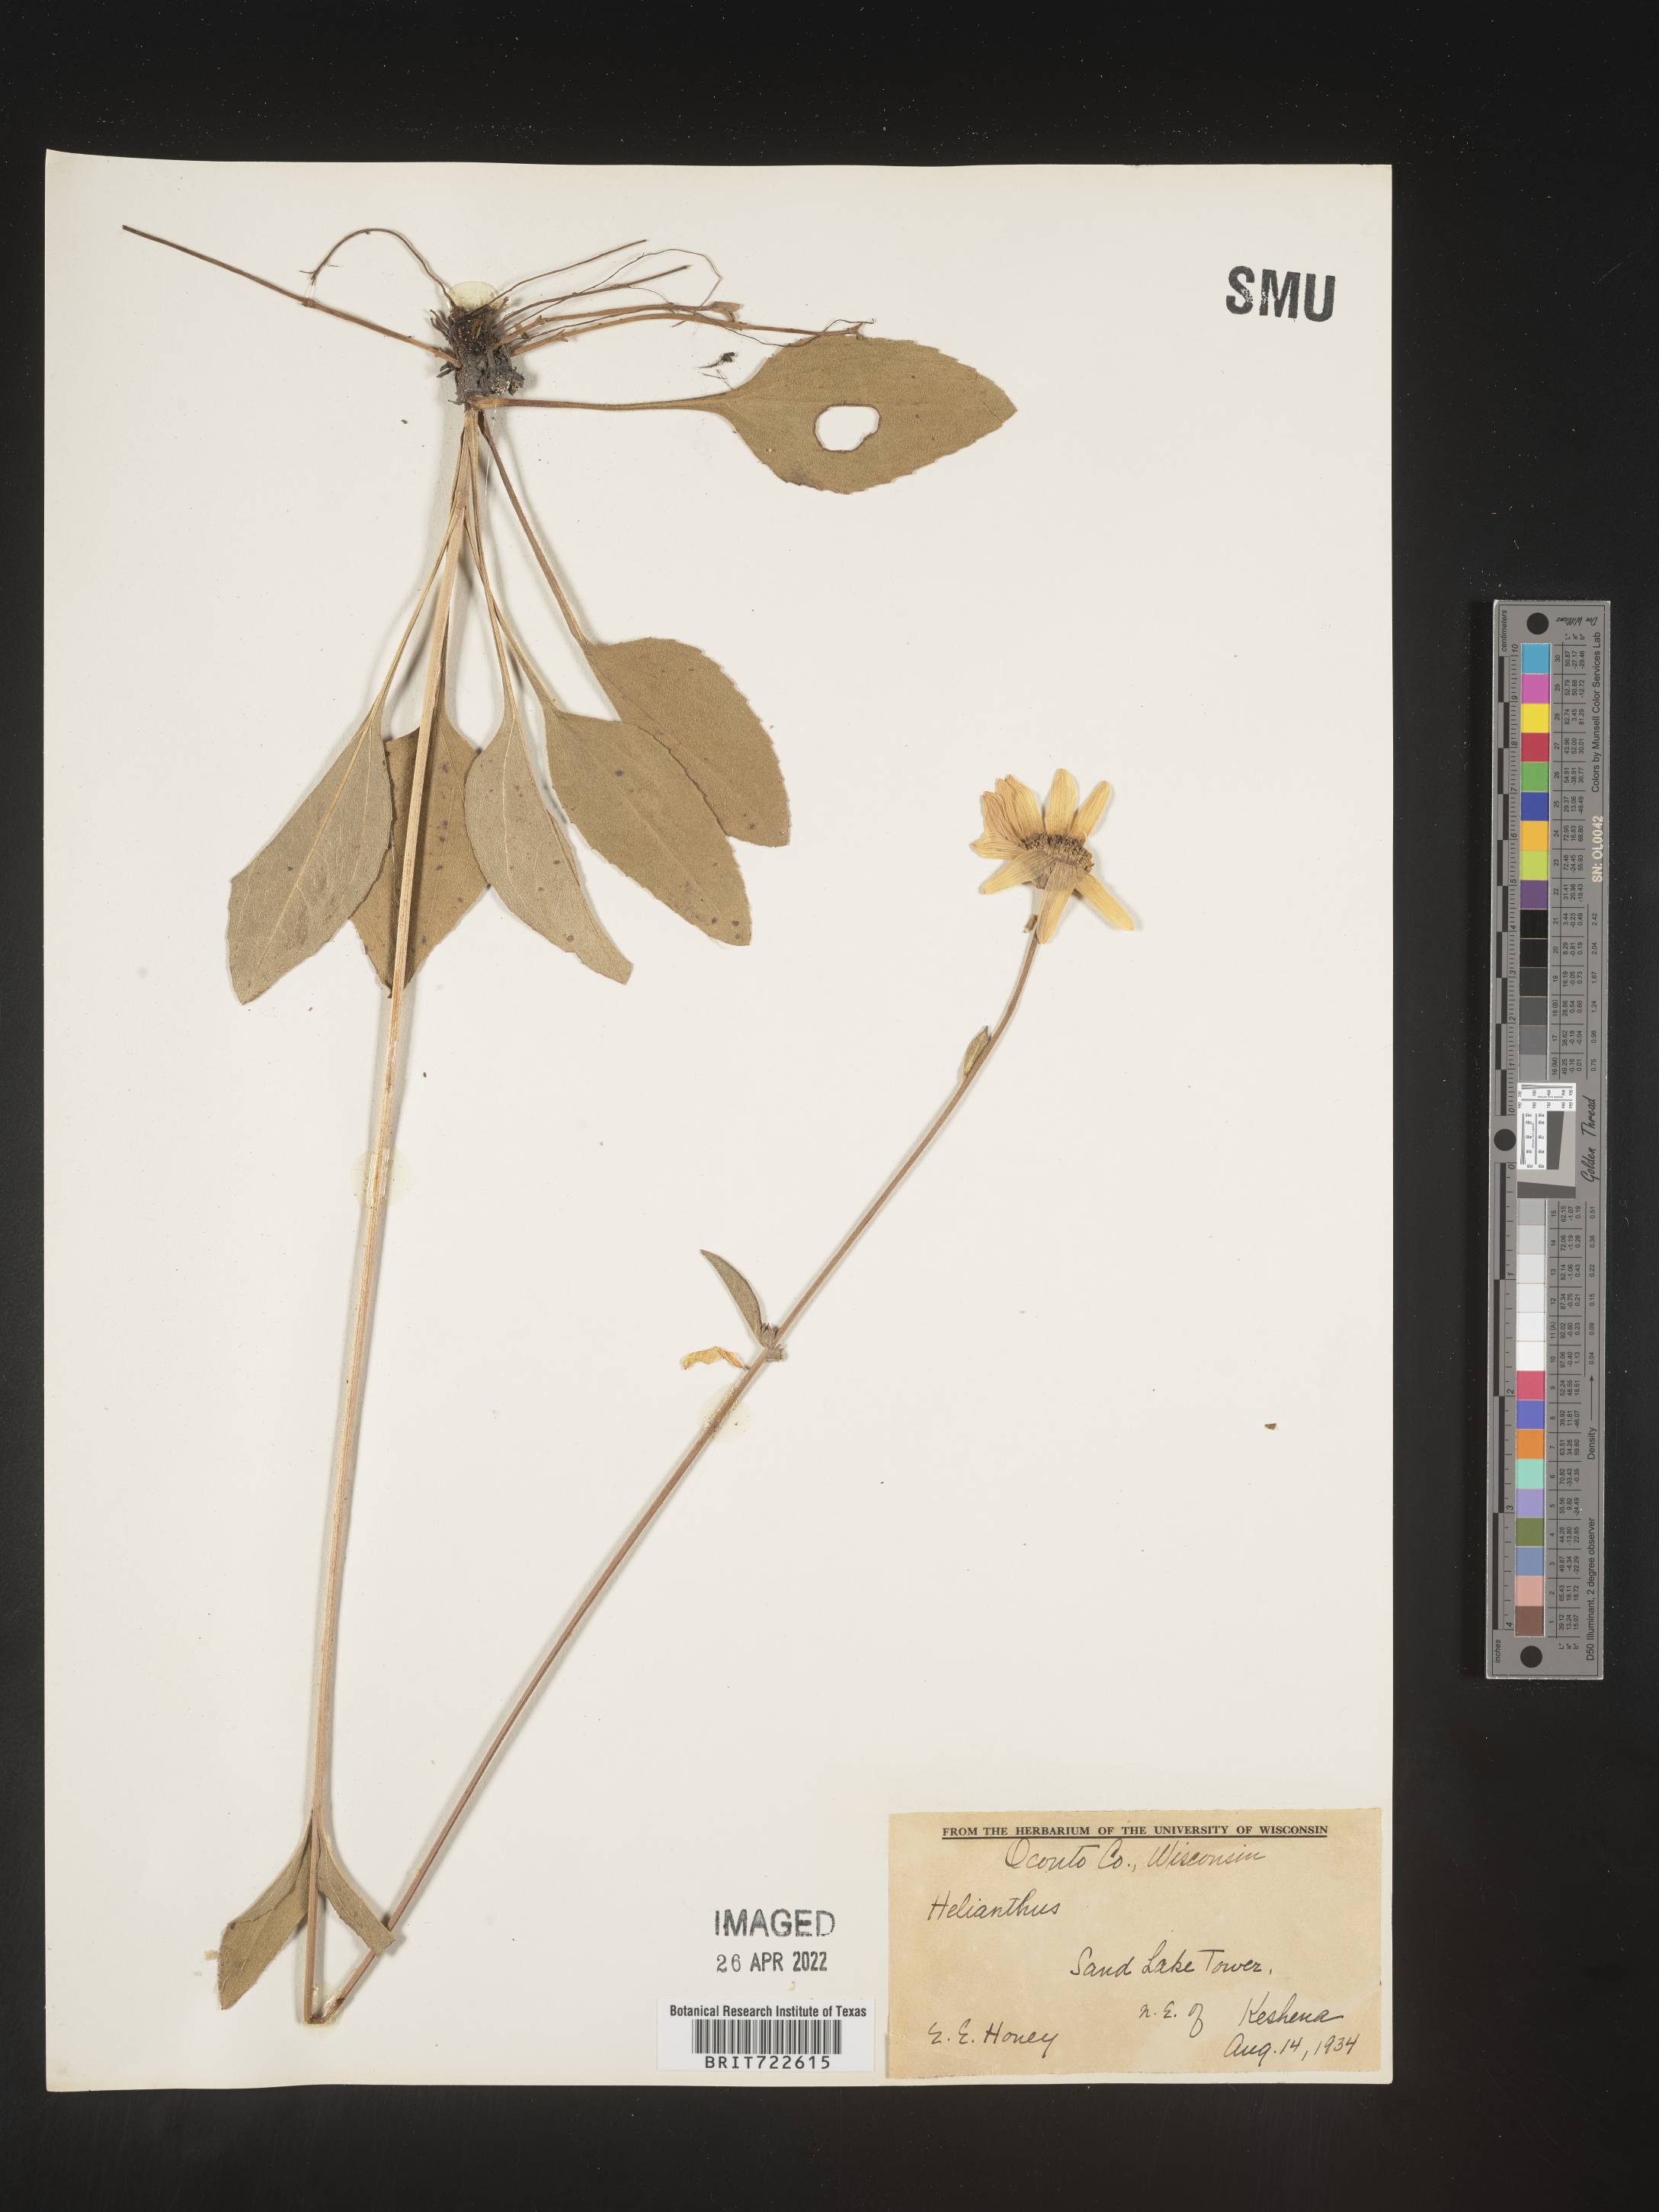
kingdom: Plantae
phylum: Tracheophyta
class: Magnoliopsida
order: Asterales
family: Asteraceae
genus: Helianthus
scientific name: Helianthus occidentalis
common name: Western sunflower
